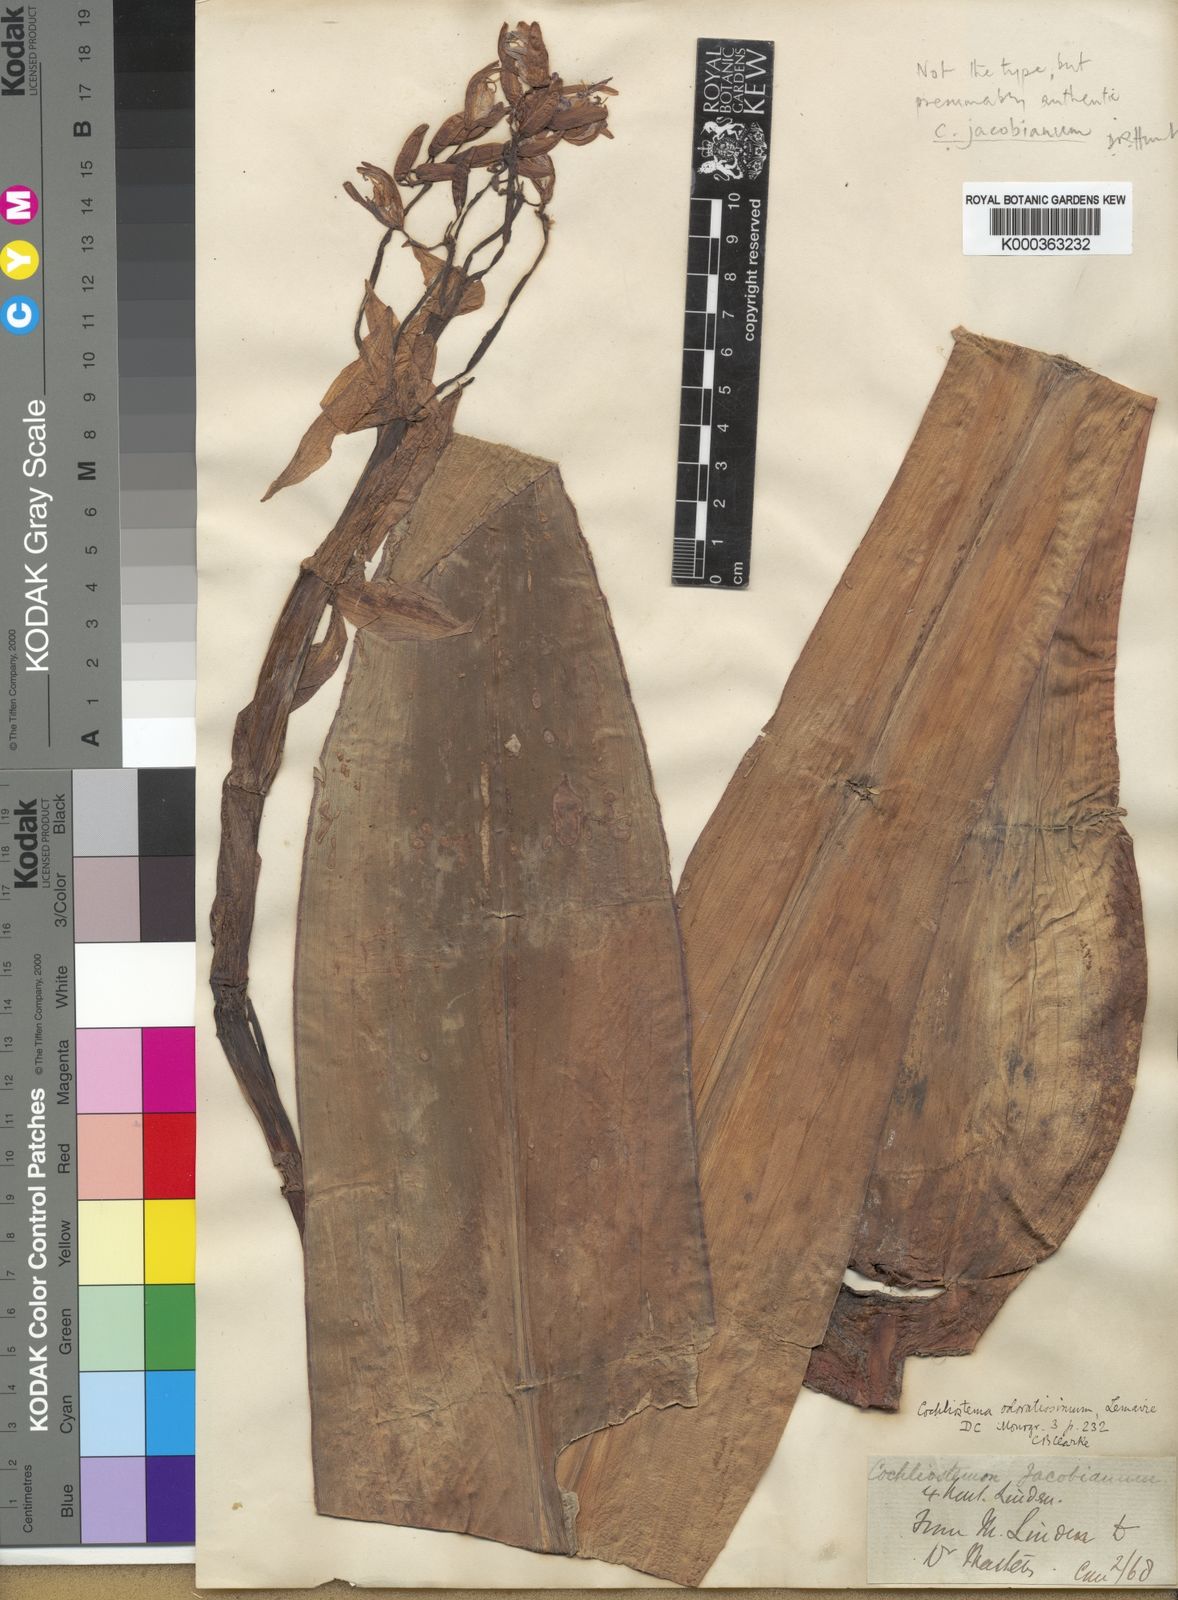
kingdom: Plantae
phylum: Tracheophyta
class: Liliopsida
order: Commelinales
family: Commelinaceae
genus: Cochliostema
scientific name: Cochliostema odoratissimum
